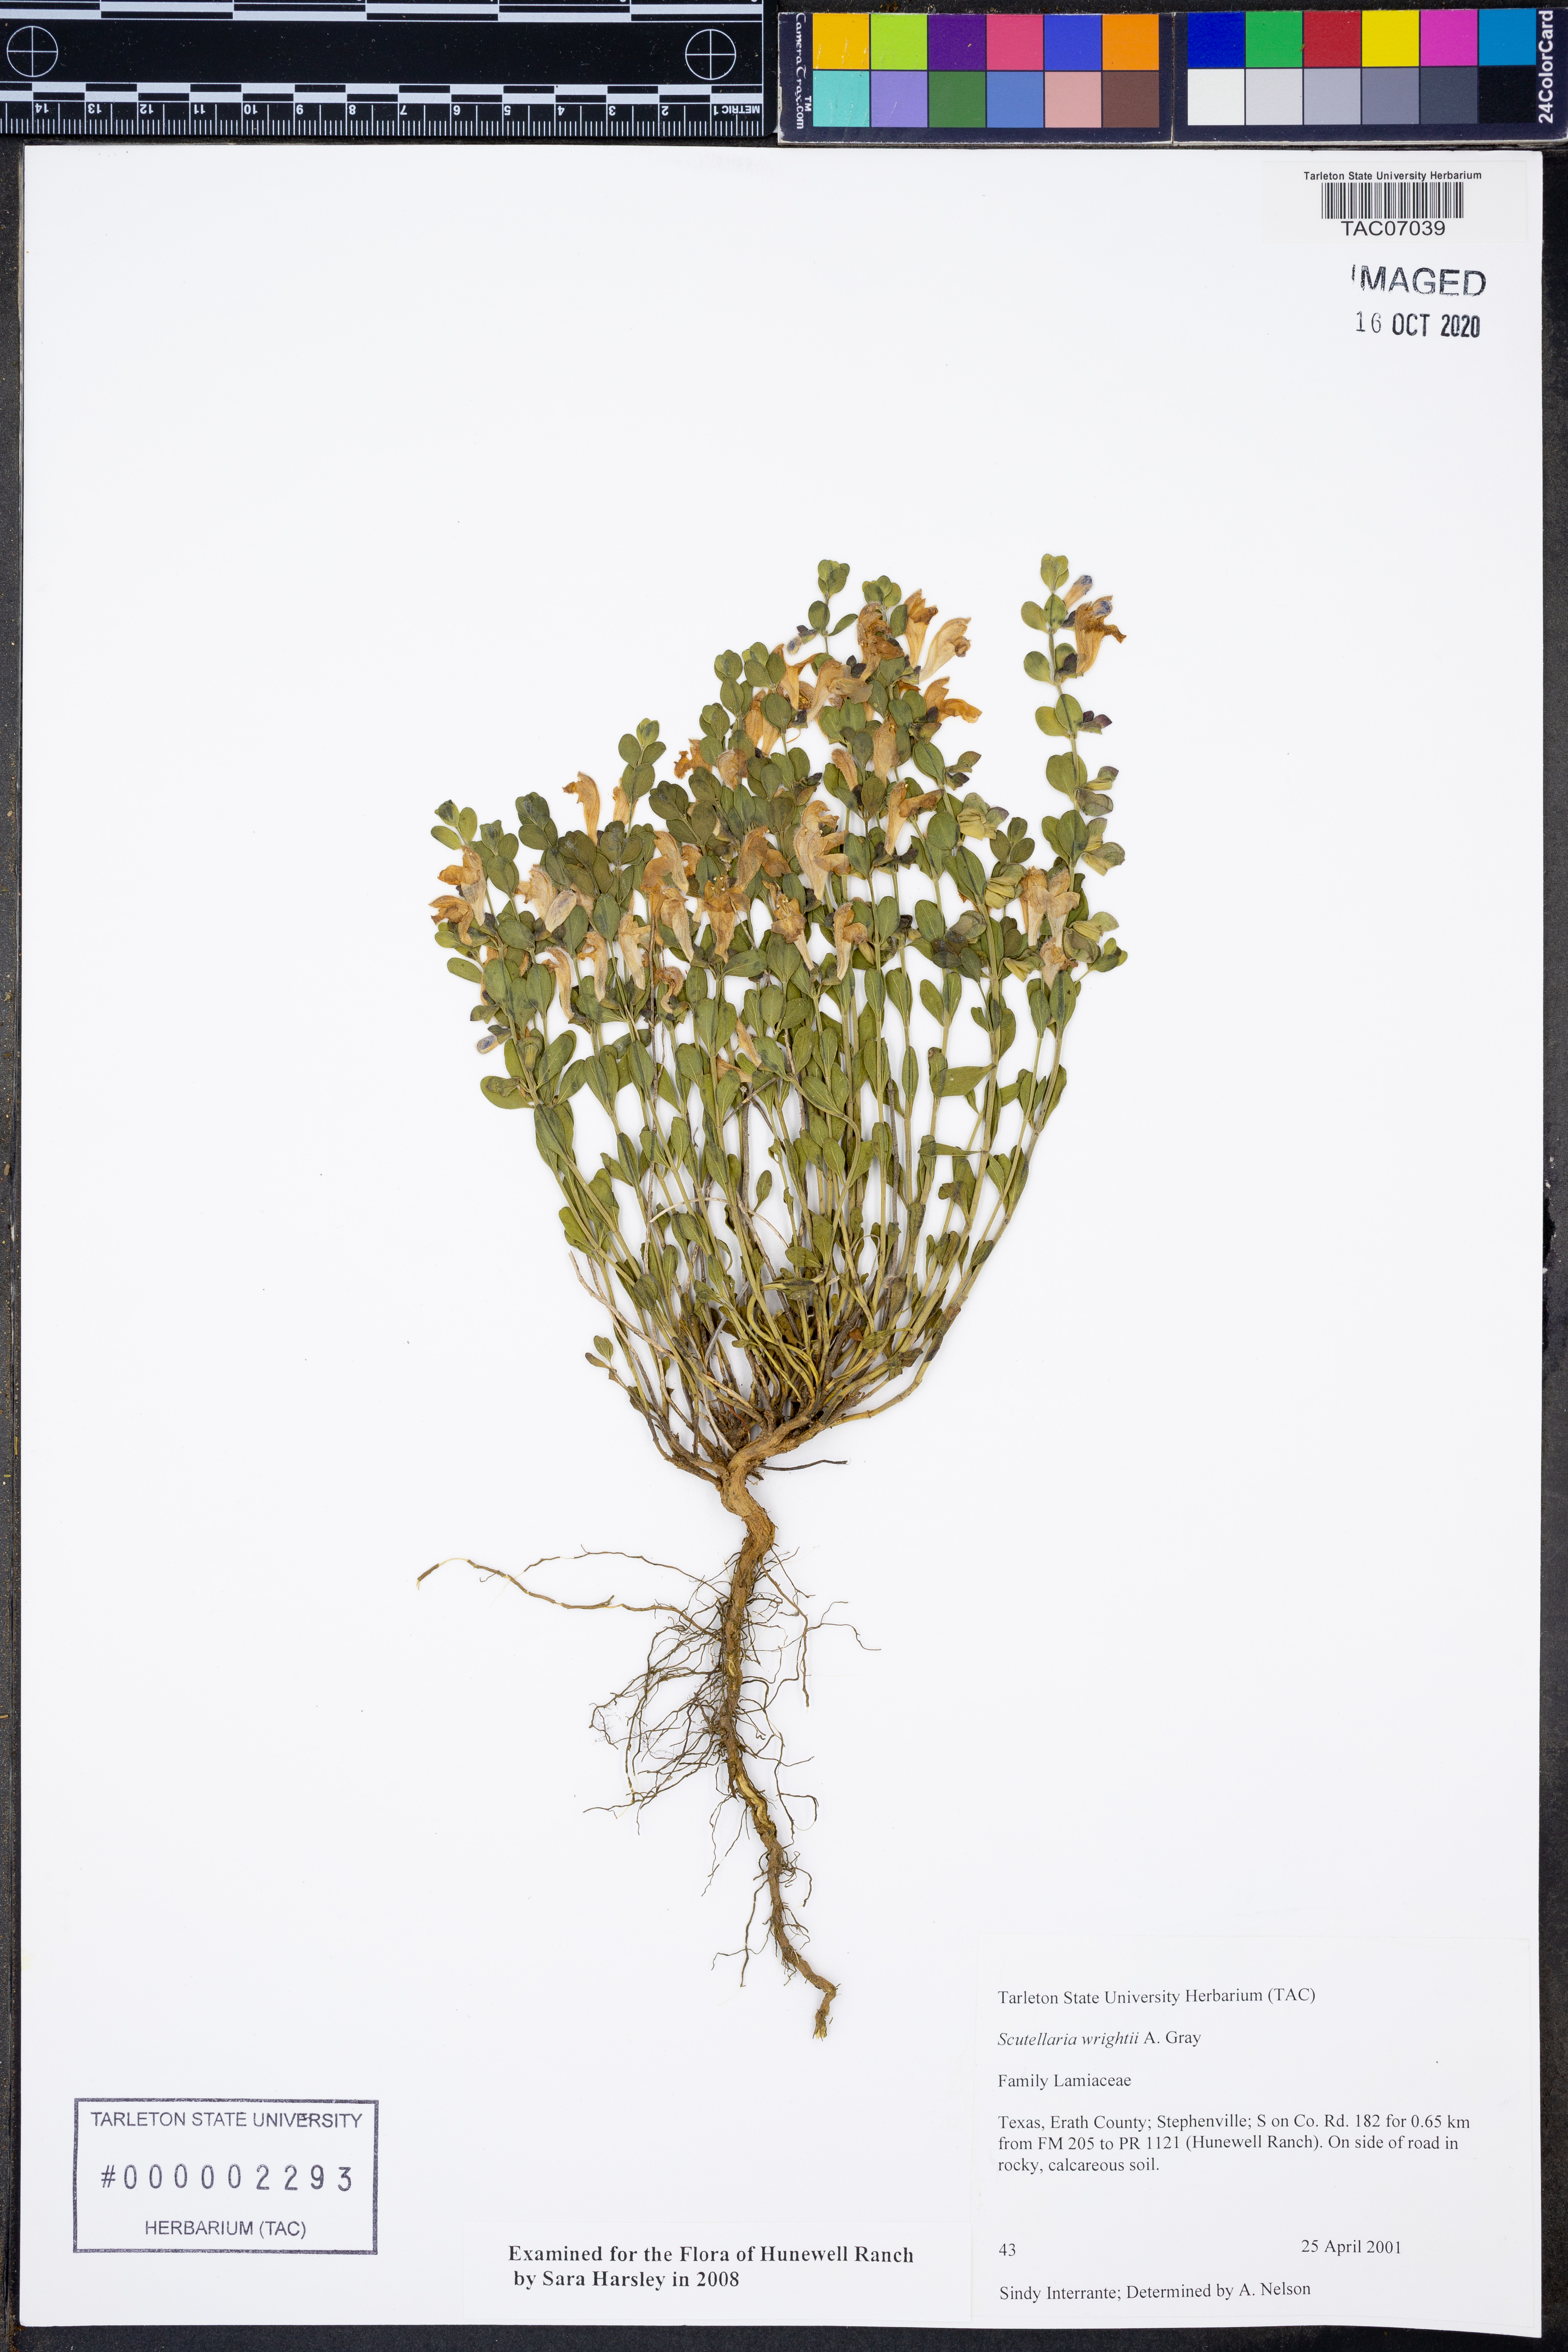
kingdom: Plantae
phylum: Tracheophyta
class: Magnoliopsida
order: Lamiales
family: Lamiaceae
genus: Scutellaria
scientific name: Scutellaria wrightii
